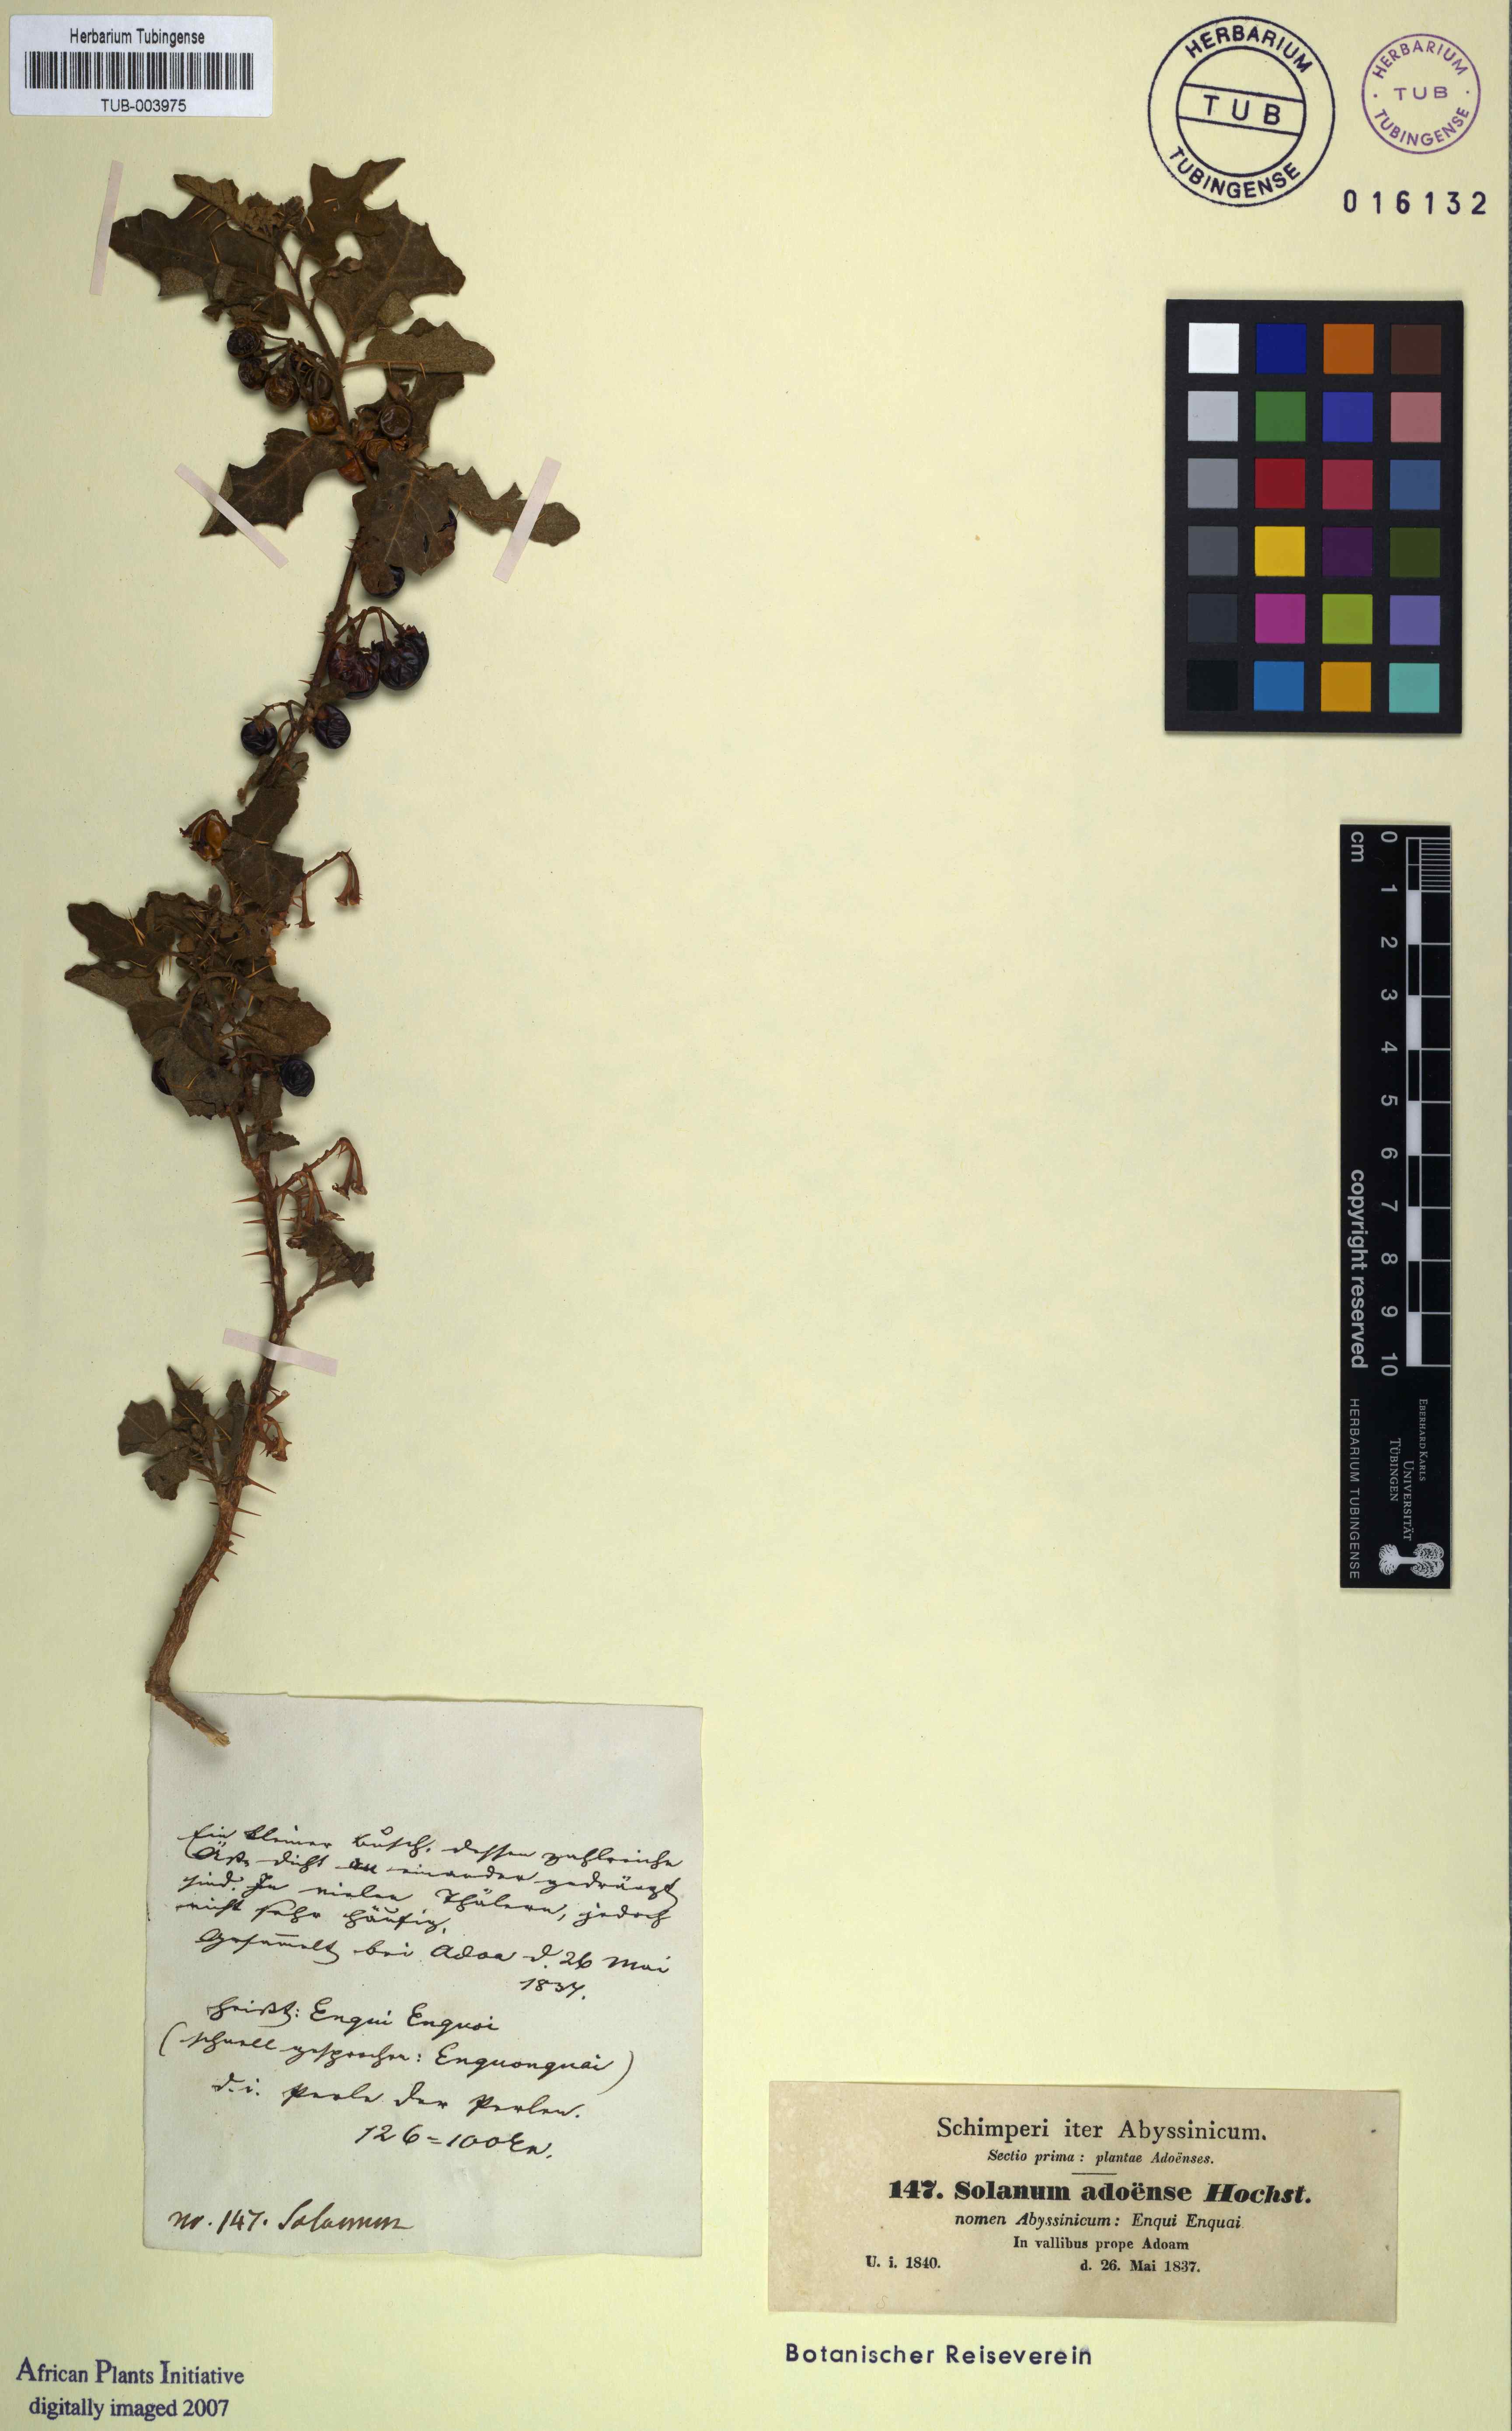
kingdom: Plantae
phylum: Tracheophyta
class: Magnoliopsida
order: Solanales
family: Solanaceae
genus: Solanum
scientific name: Solanum adoense
